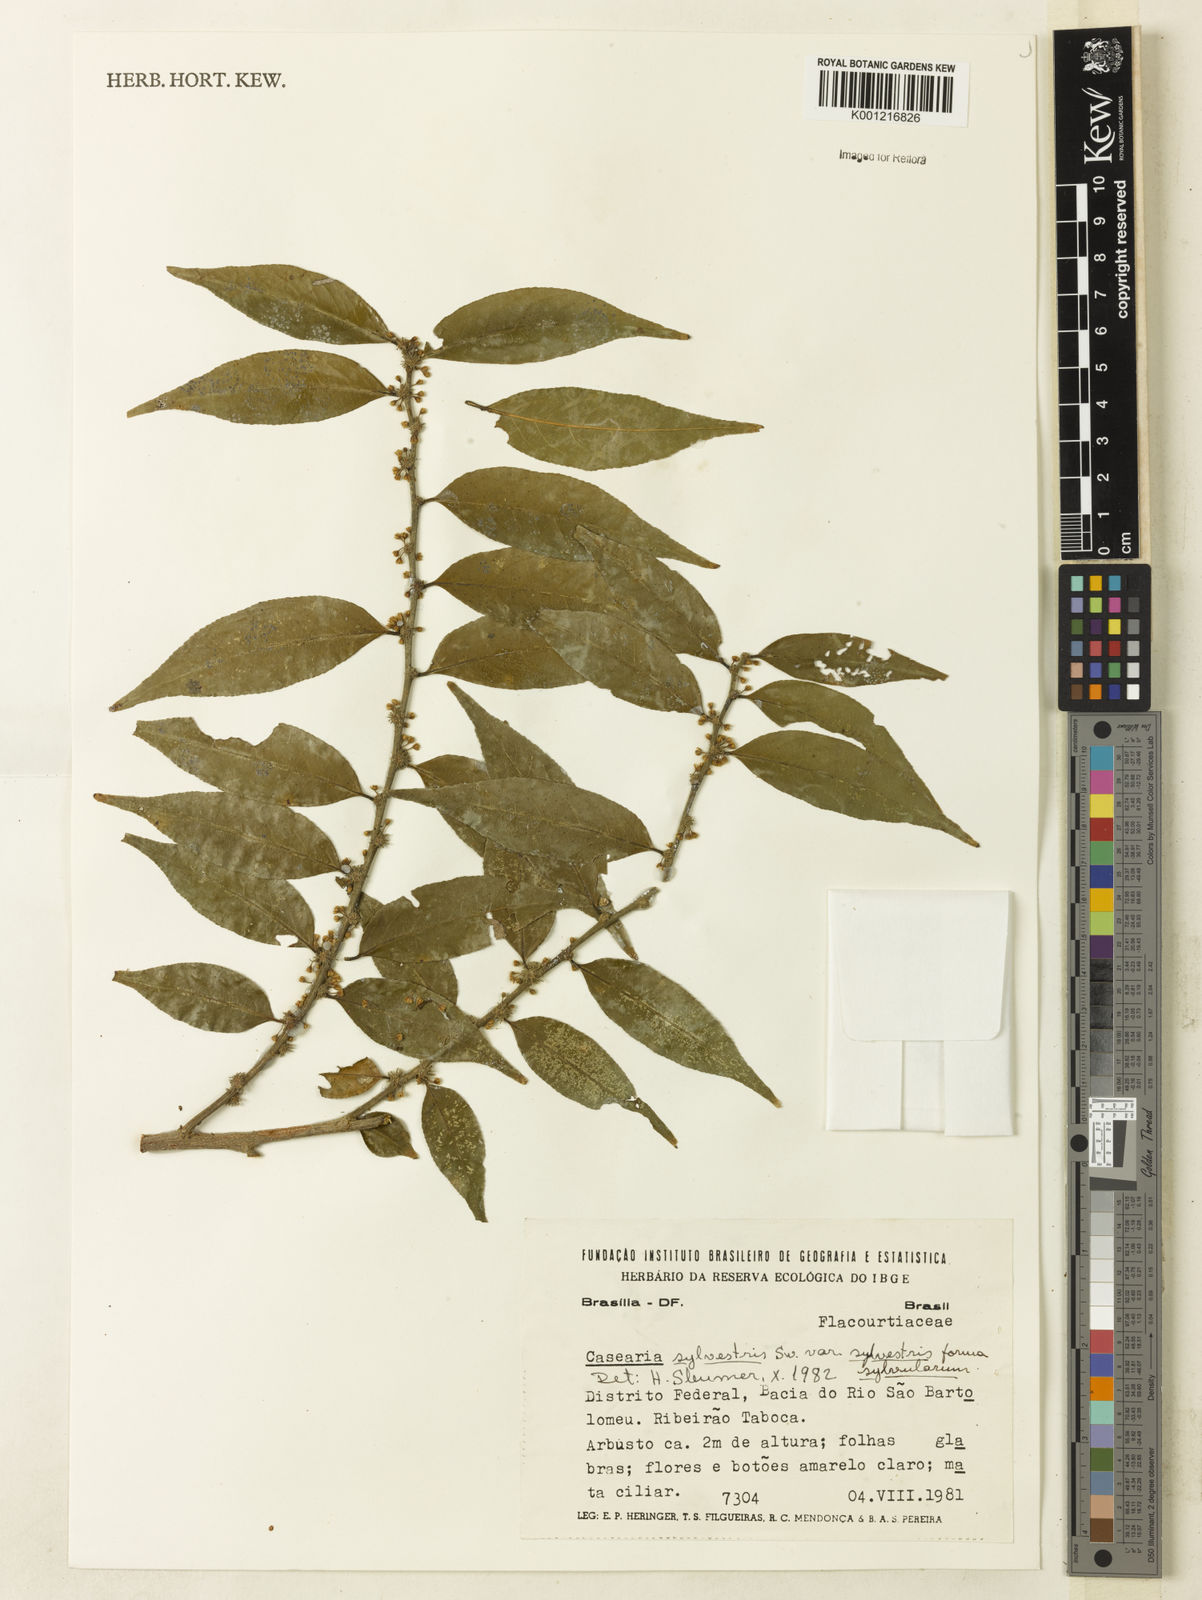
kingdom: Plantae
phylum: Tracheophyta
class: Magnoliopsida
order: Malpighiales
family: Salicaceae
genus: Casearia
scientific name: Casearia sylvestris
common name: Wild sage
